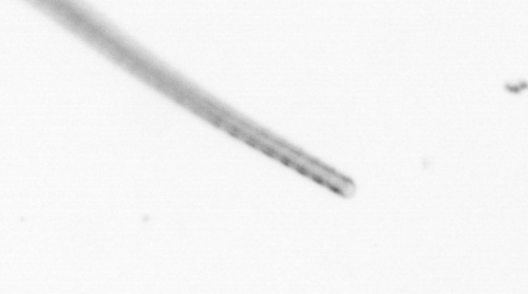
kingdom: Chromista
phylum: Ochrophyta
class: Bacillariophyceae
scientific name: Bacillariophyceae
